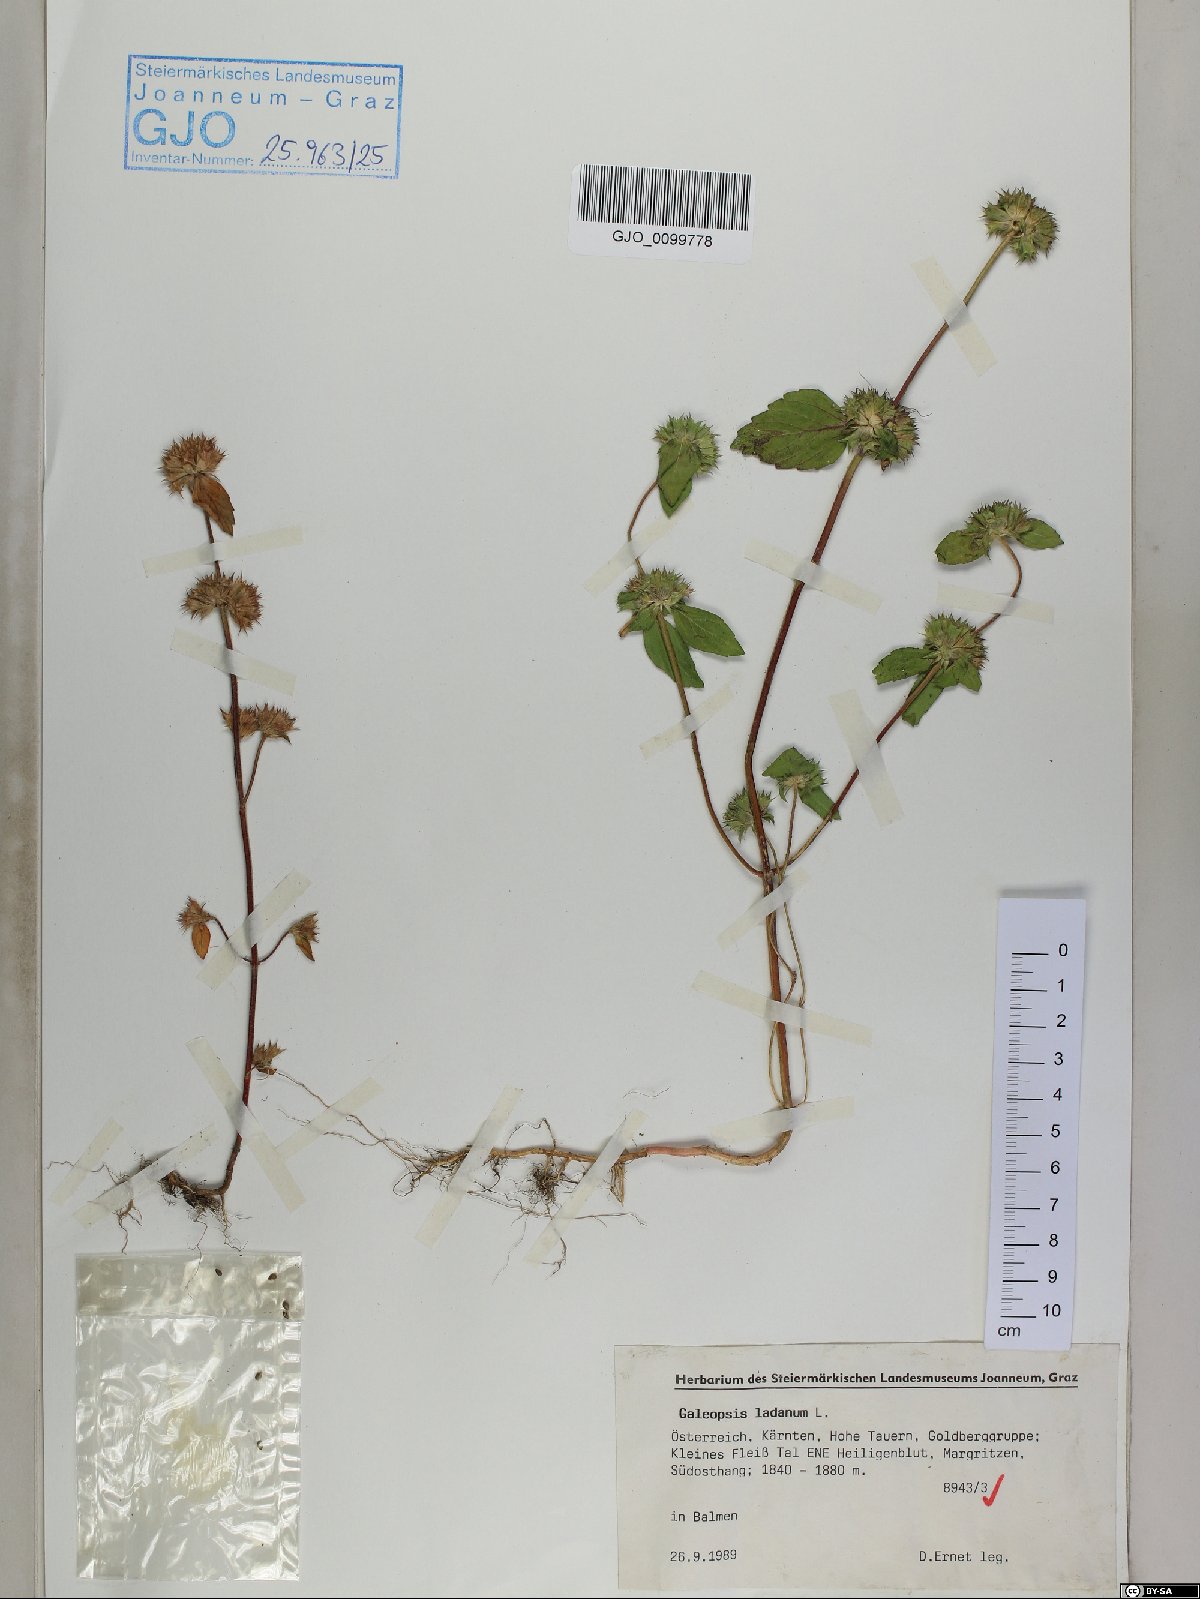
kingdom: Plantae
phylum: Tracheophyta
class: Magnoliopsida
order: Lamiales
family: Lamiaceae
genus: Galeopsis
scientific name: Galeopsis ladanum
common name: Broad-leaved hemp-nettle
